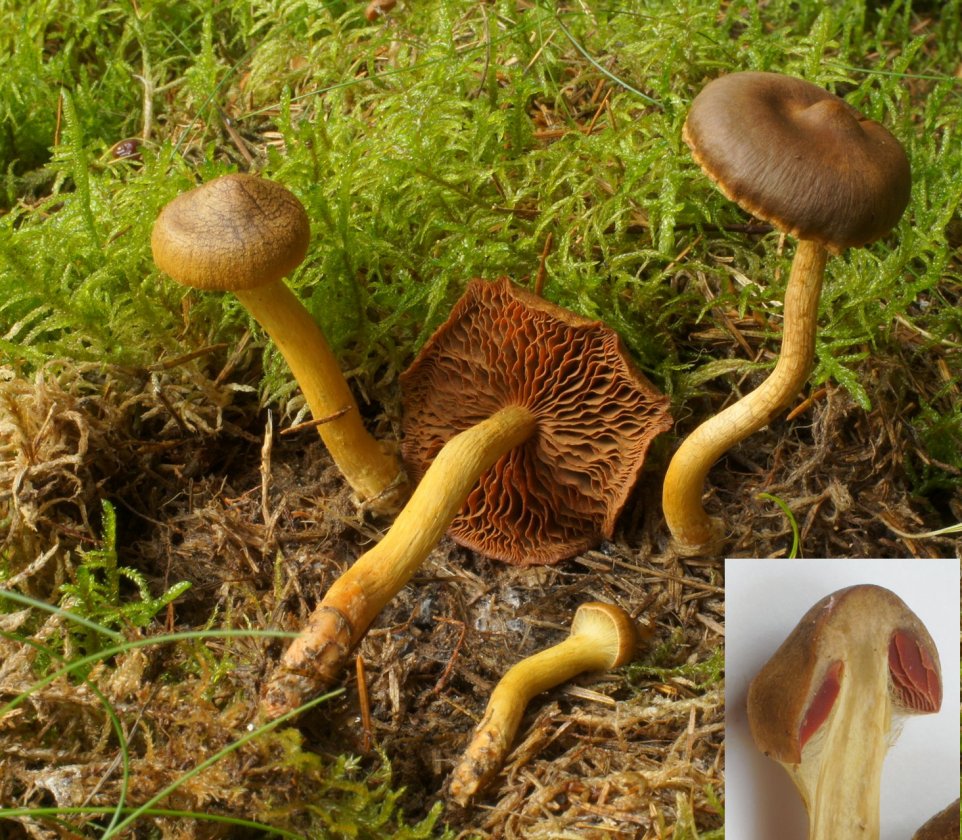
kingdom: Fungi
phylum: Basidiomycota
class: Agaricomycetes
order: Agaricales
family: Cortinariaceae
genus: Cortinarius
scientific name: Cortinarius
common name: cinnoberbladet slørhat
